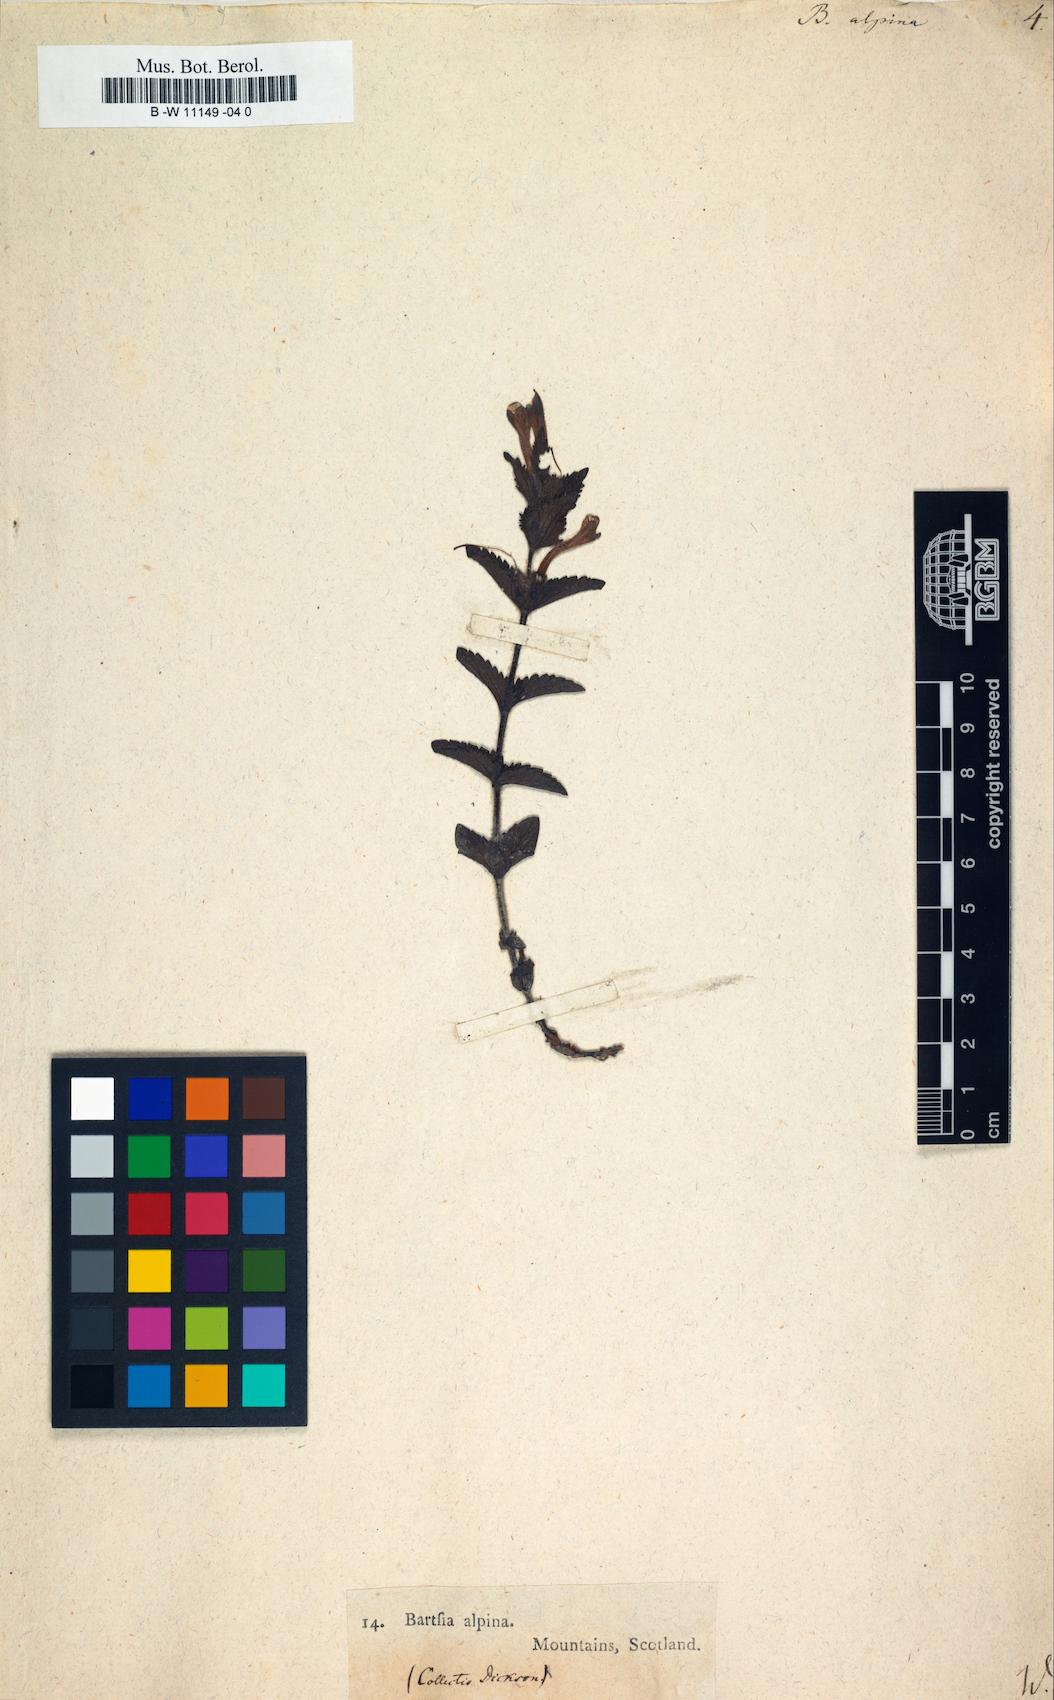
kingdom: Plantae
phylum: Tracheophyta
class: Magnoliopsida
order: Lamiales
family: Orobanchaceae
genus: Bartsia
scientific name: Bartsia alpina
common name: Alpine bartsia
